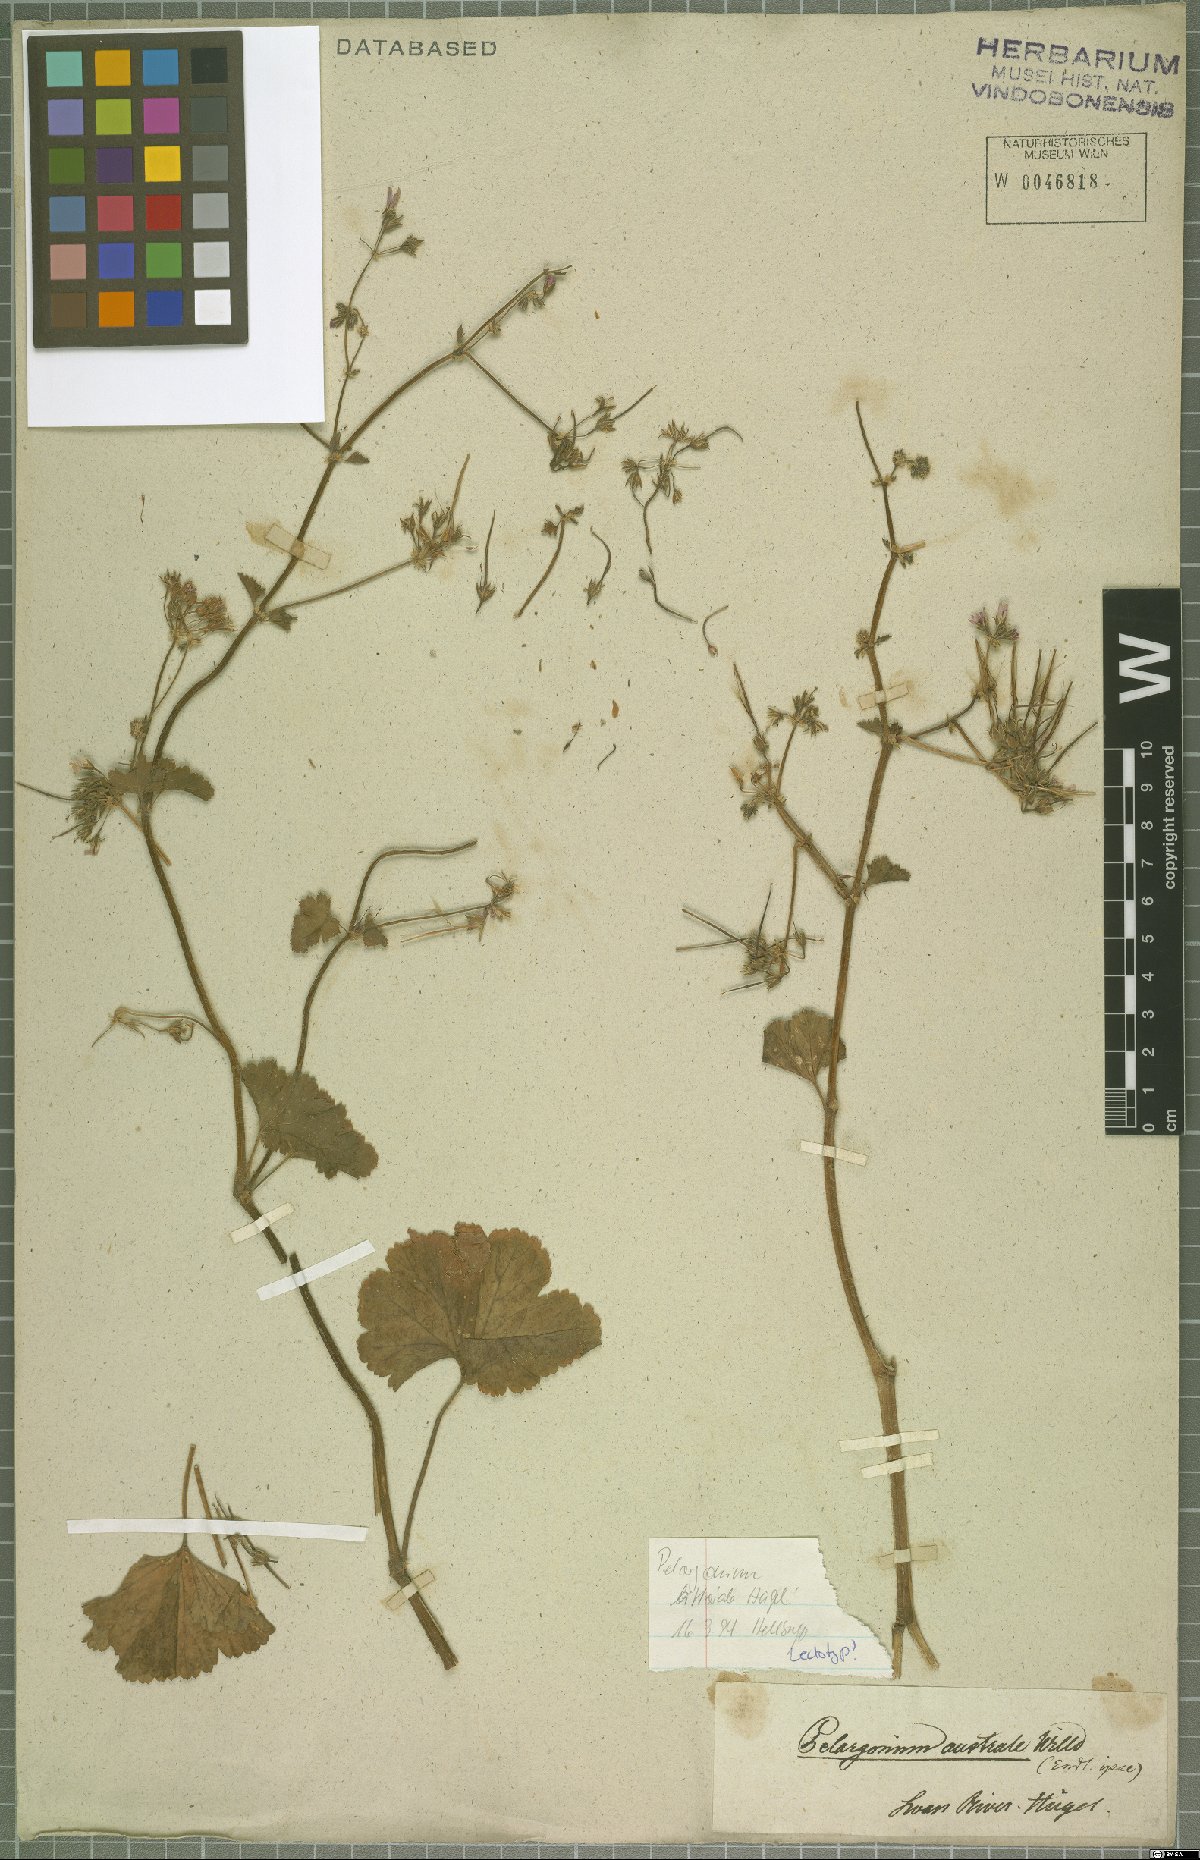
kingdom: Plantae
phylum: Tracheophyta
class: Magnoliopsida
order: Geraniales
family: Geraniaceae
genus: Pelargonium
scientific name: Pelargonium littorale
